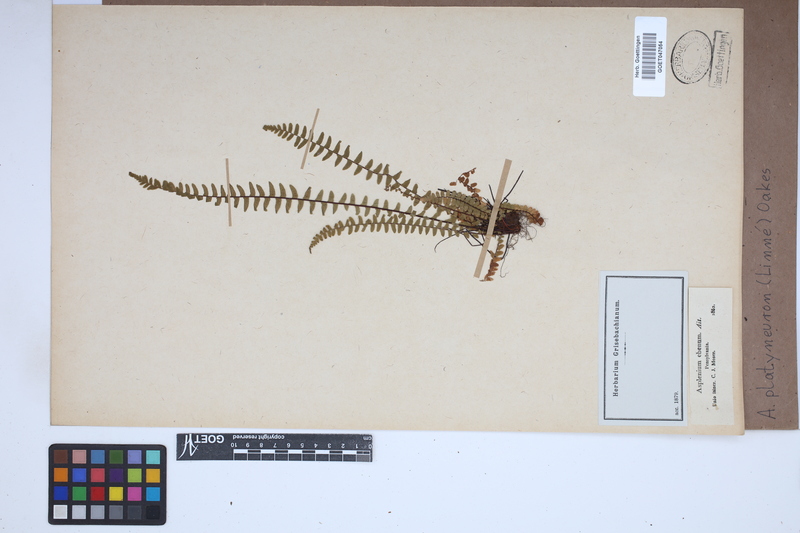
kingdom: Plantae
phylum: Tracheophyta
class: Polypodiopsida
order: Polypodiales
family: Aspleniaceae
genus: Asplenium
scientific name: Asplenium platyneuron
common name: Ebony spleenwort
